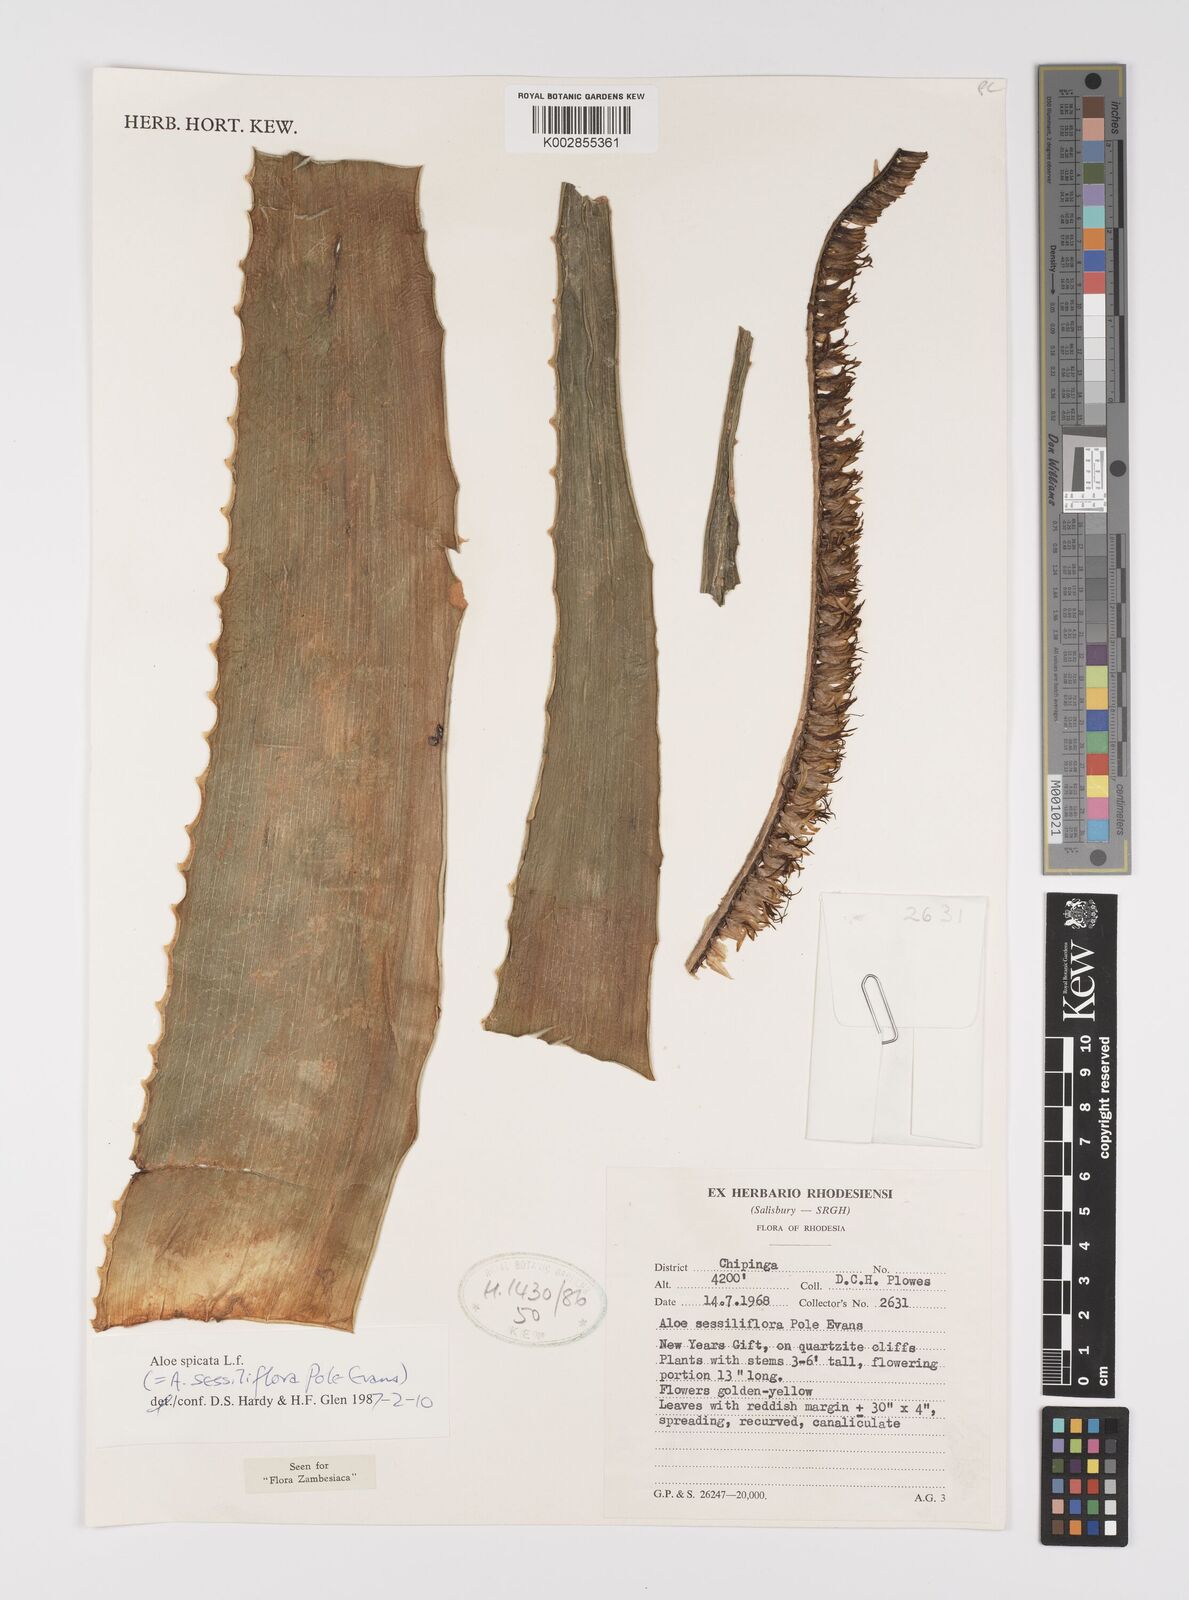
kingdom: Plantae
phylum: Tracheophyta
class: Liliopsida
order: Asparagales
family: Asphodelaceae
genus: Aloe
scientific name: Aloe spicata
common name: Gazaland aloe
